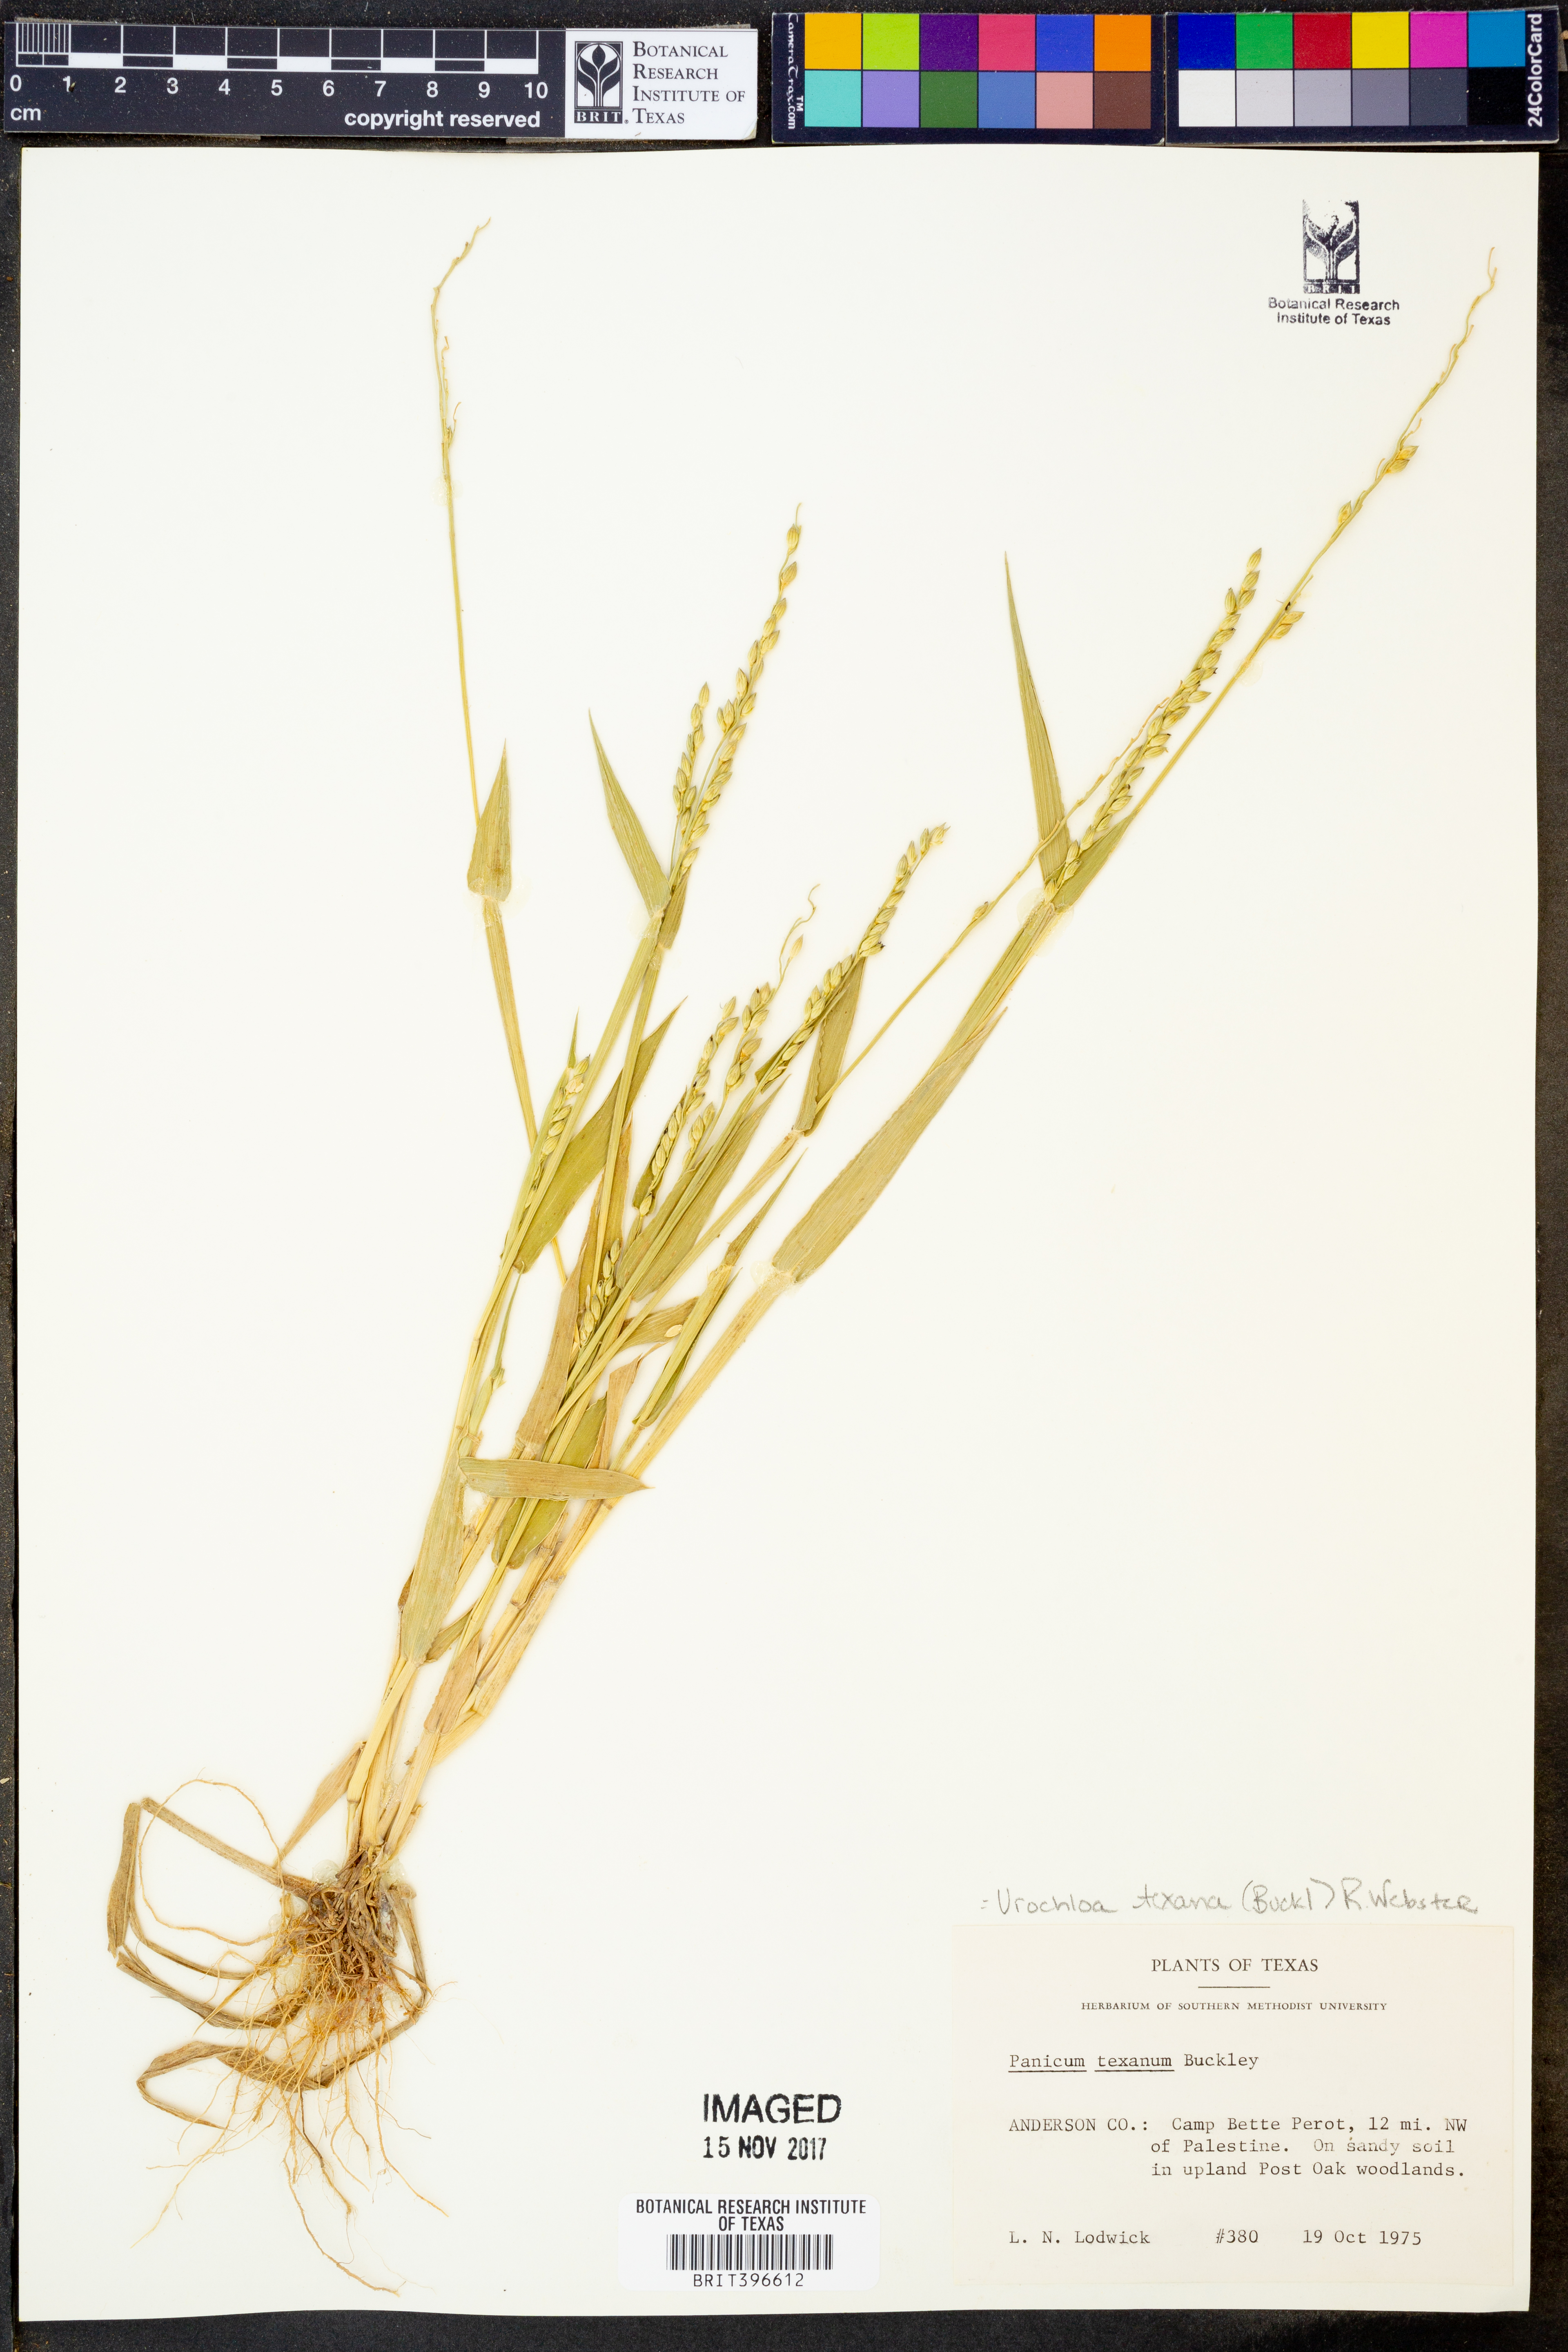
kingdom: Plantae
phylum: Tracheophyta
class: Liliopsida
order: Poales
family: Poaceae
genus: Urochloa
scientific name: Urochloa texana
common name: Texas millet
